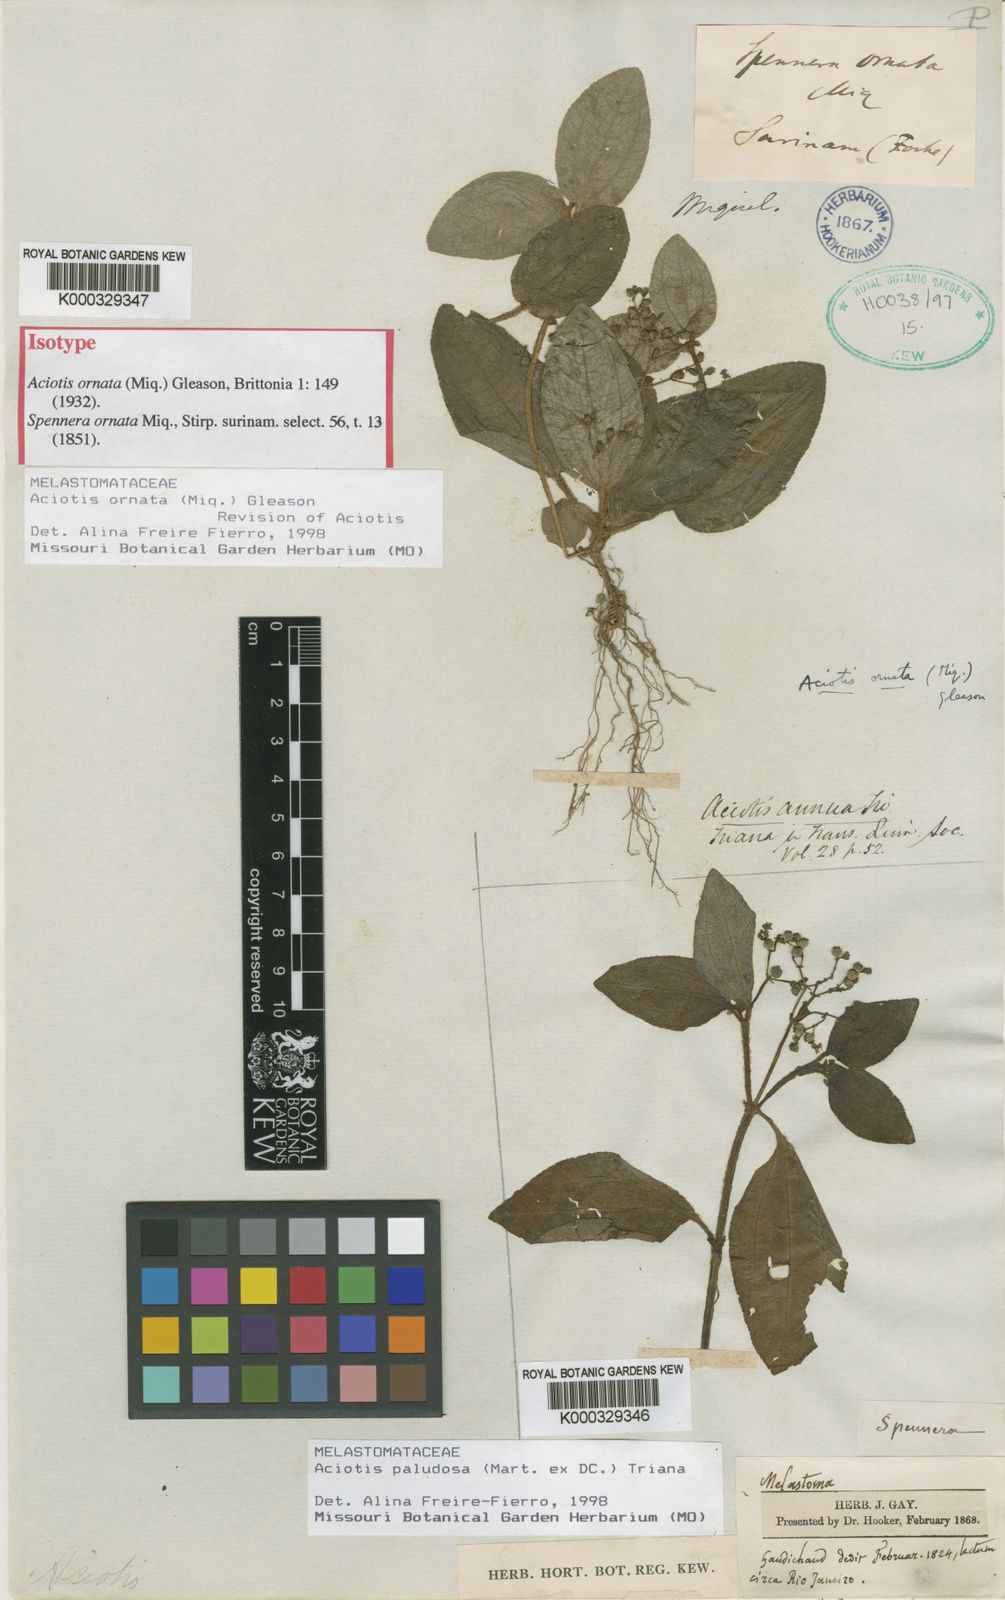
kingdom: Plantae
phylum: Tracheophyta
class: Magnoliopsida
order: Myrtales
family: Melastomataceae
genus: Aciotis
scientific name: Aciotis ornata
